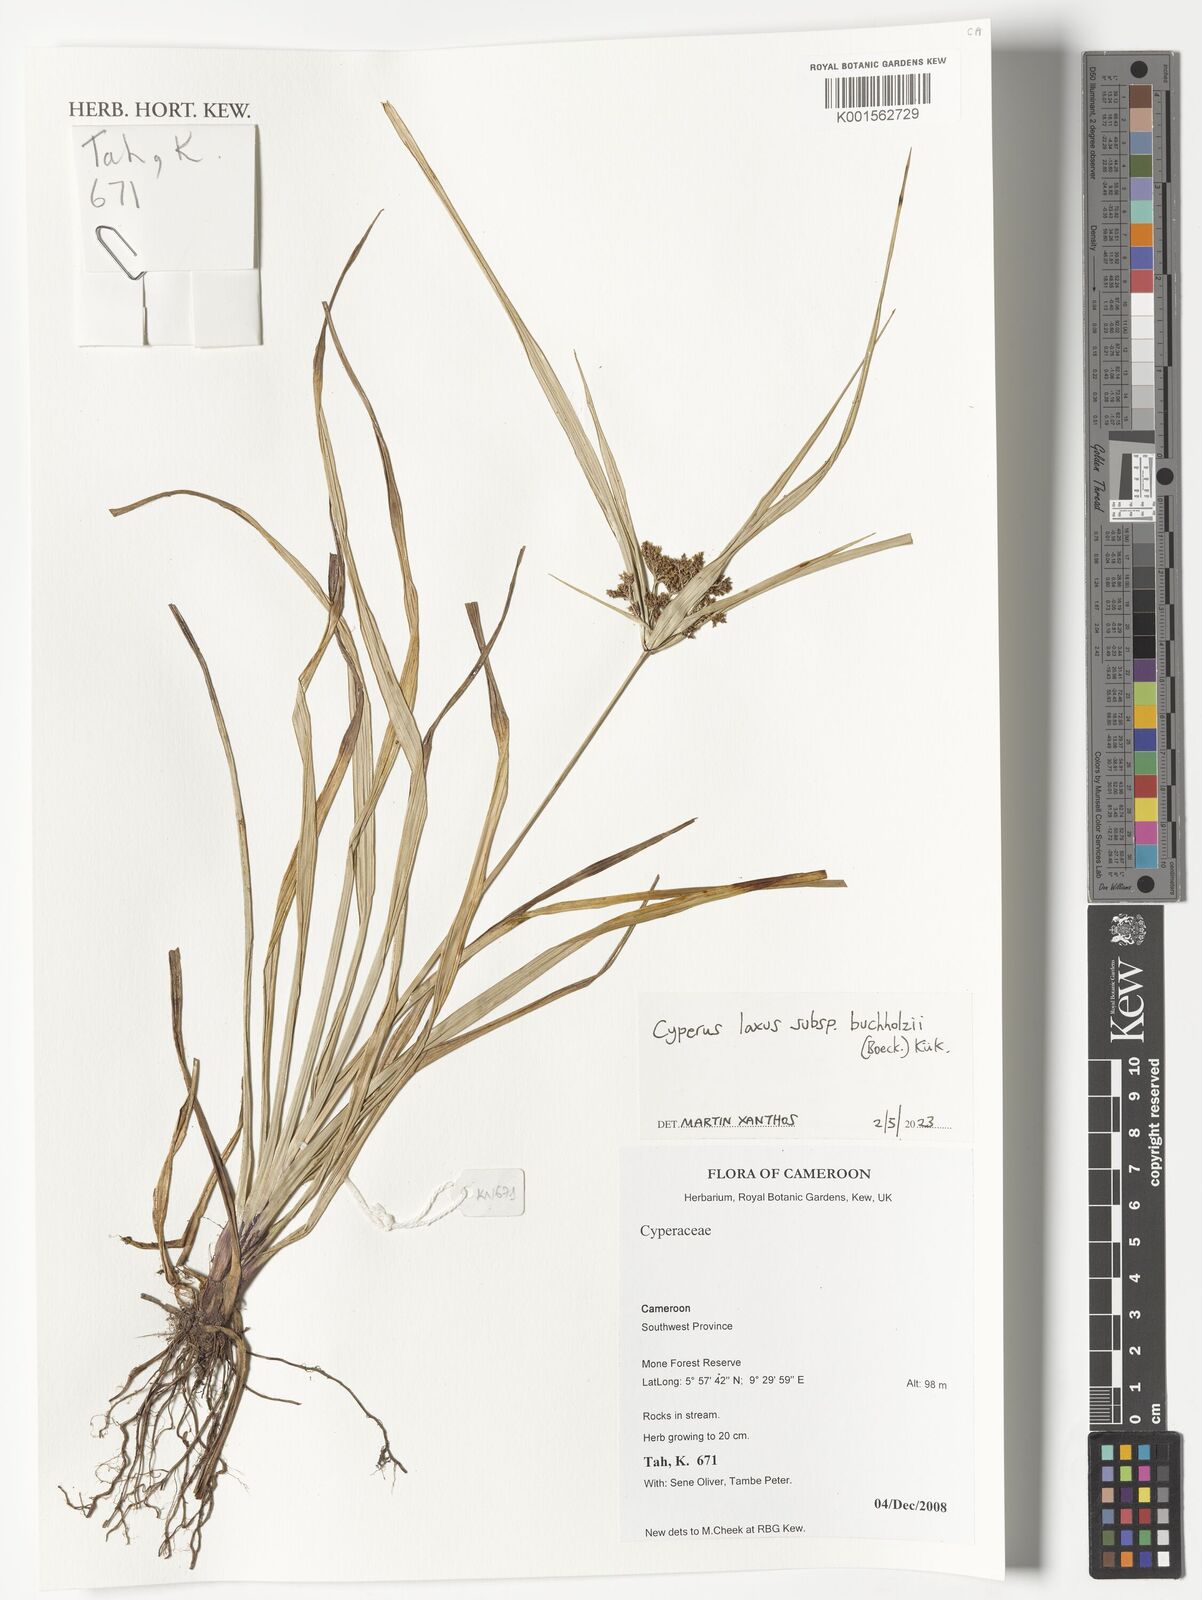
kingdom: Plantae
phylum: Tracheophyta
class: Liliopsida
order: Poales
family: Cyperaceae
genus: Cyperus
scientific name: Cyperus buchholzii
